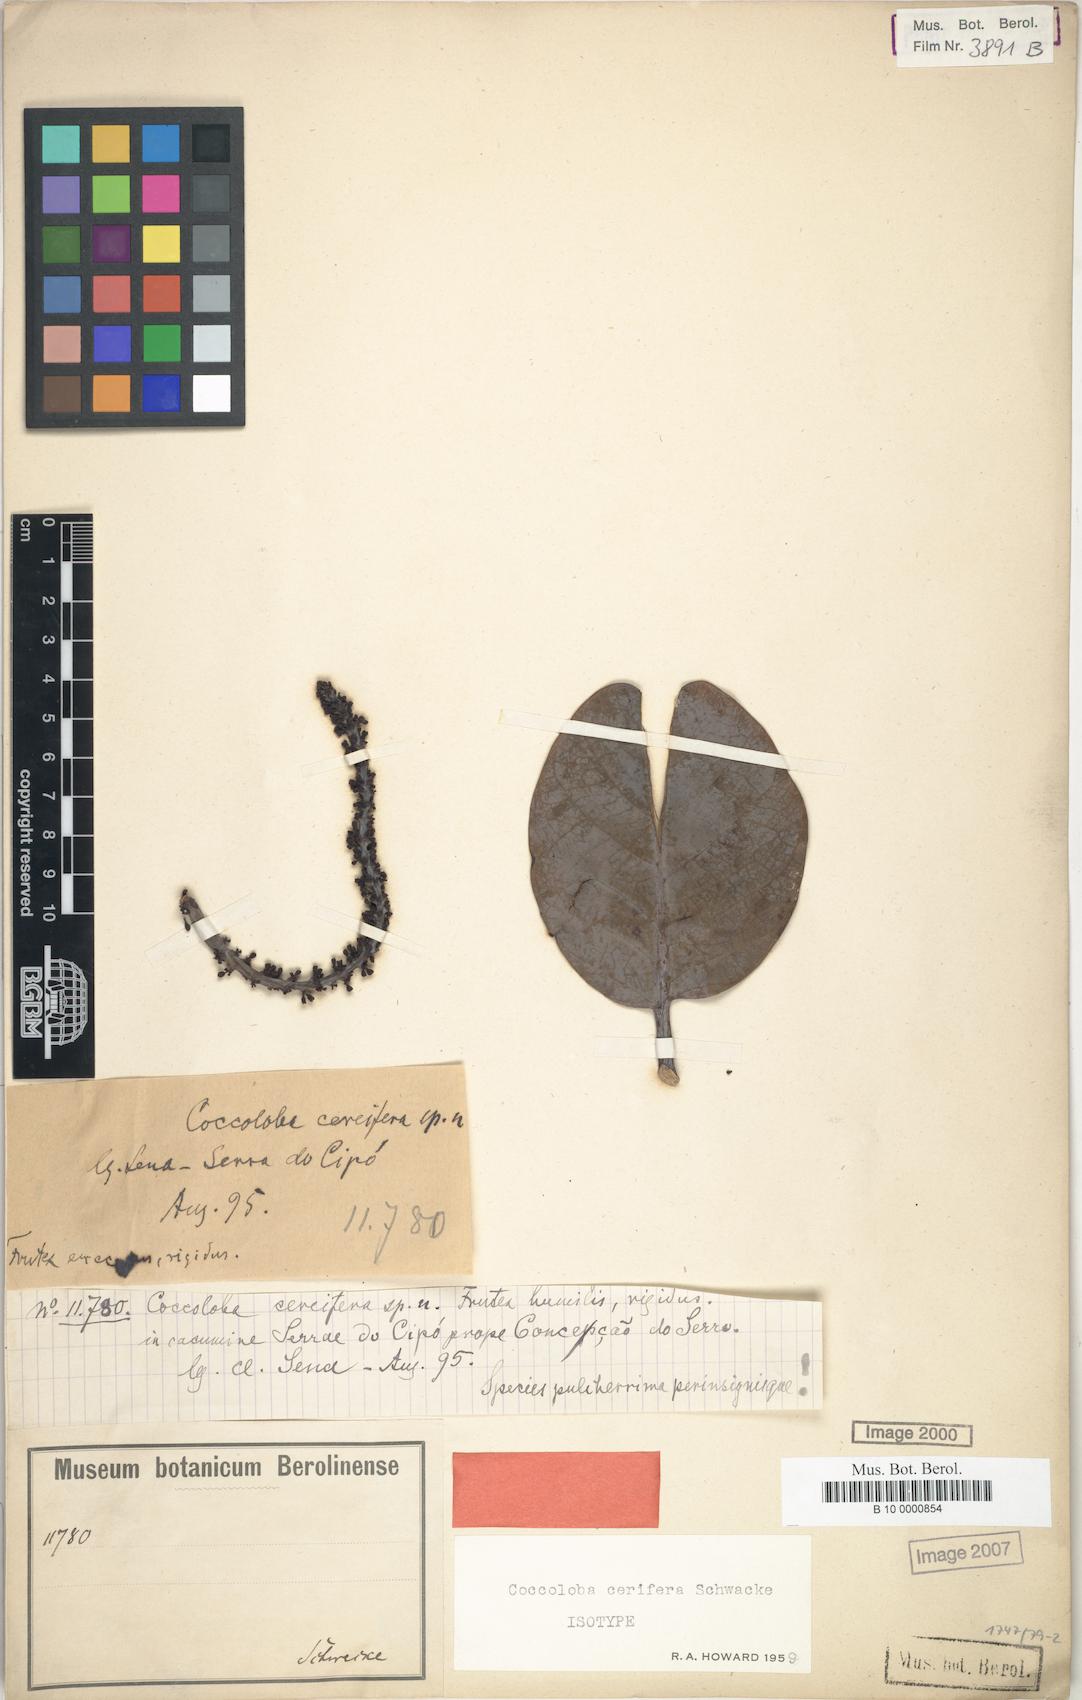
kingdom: Plantae
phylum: Tracheophyta
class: Magnoliopsida
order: Caryophyllales
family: Polygonaceae
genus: Coccoloba
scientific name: Coccoloba cerifera
